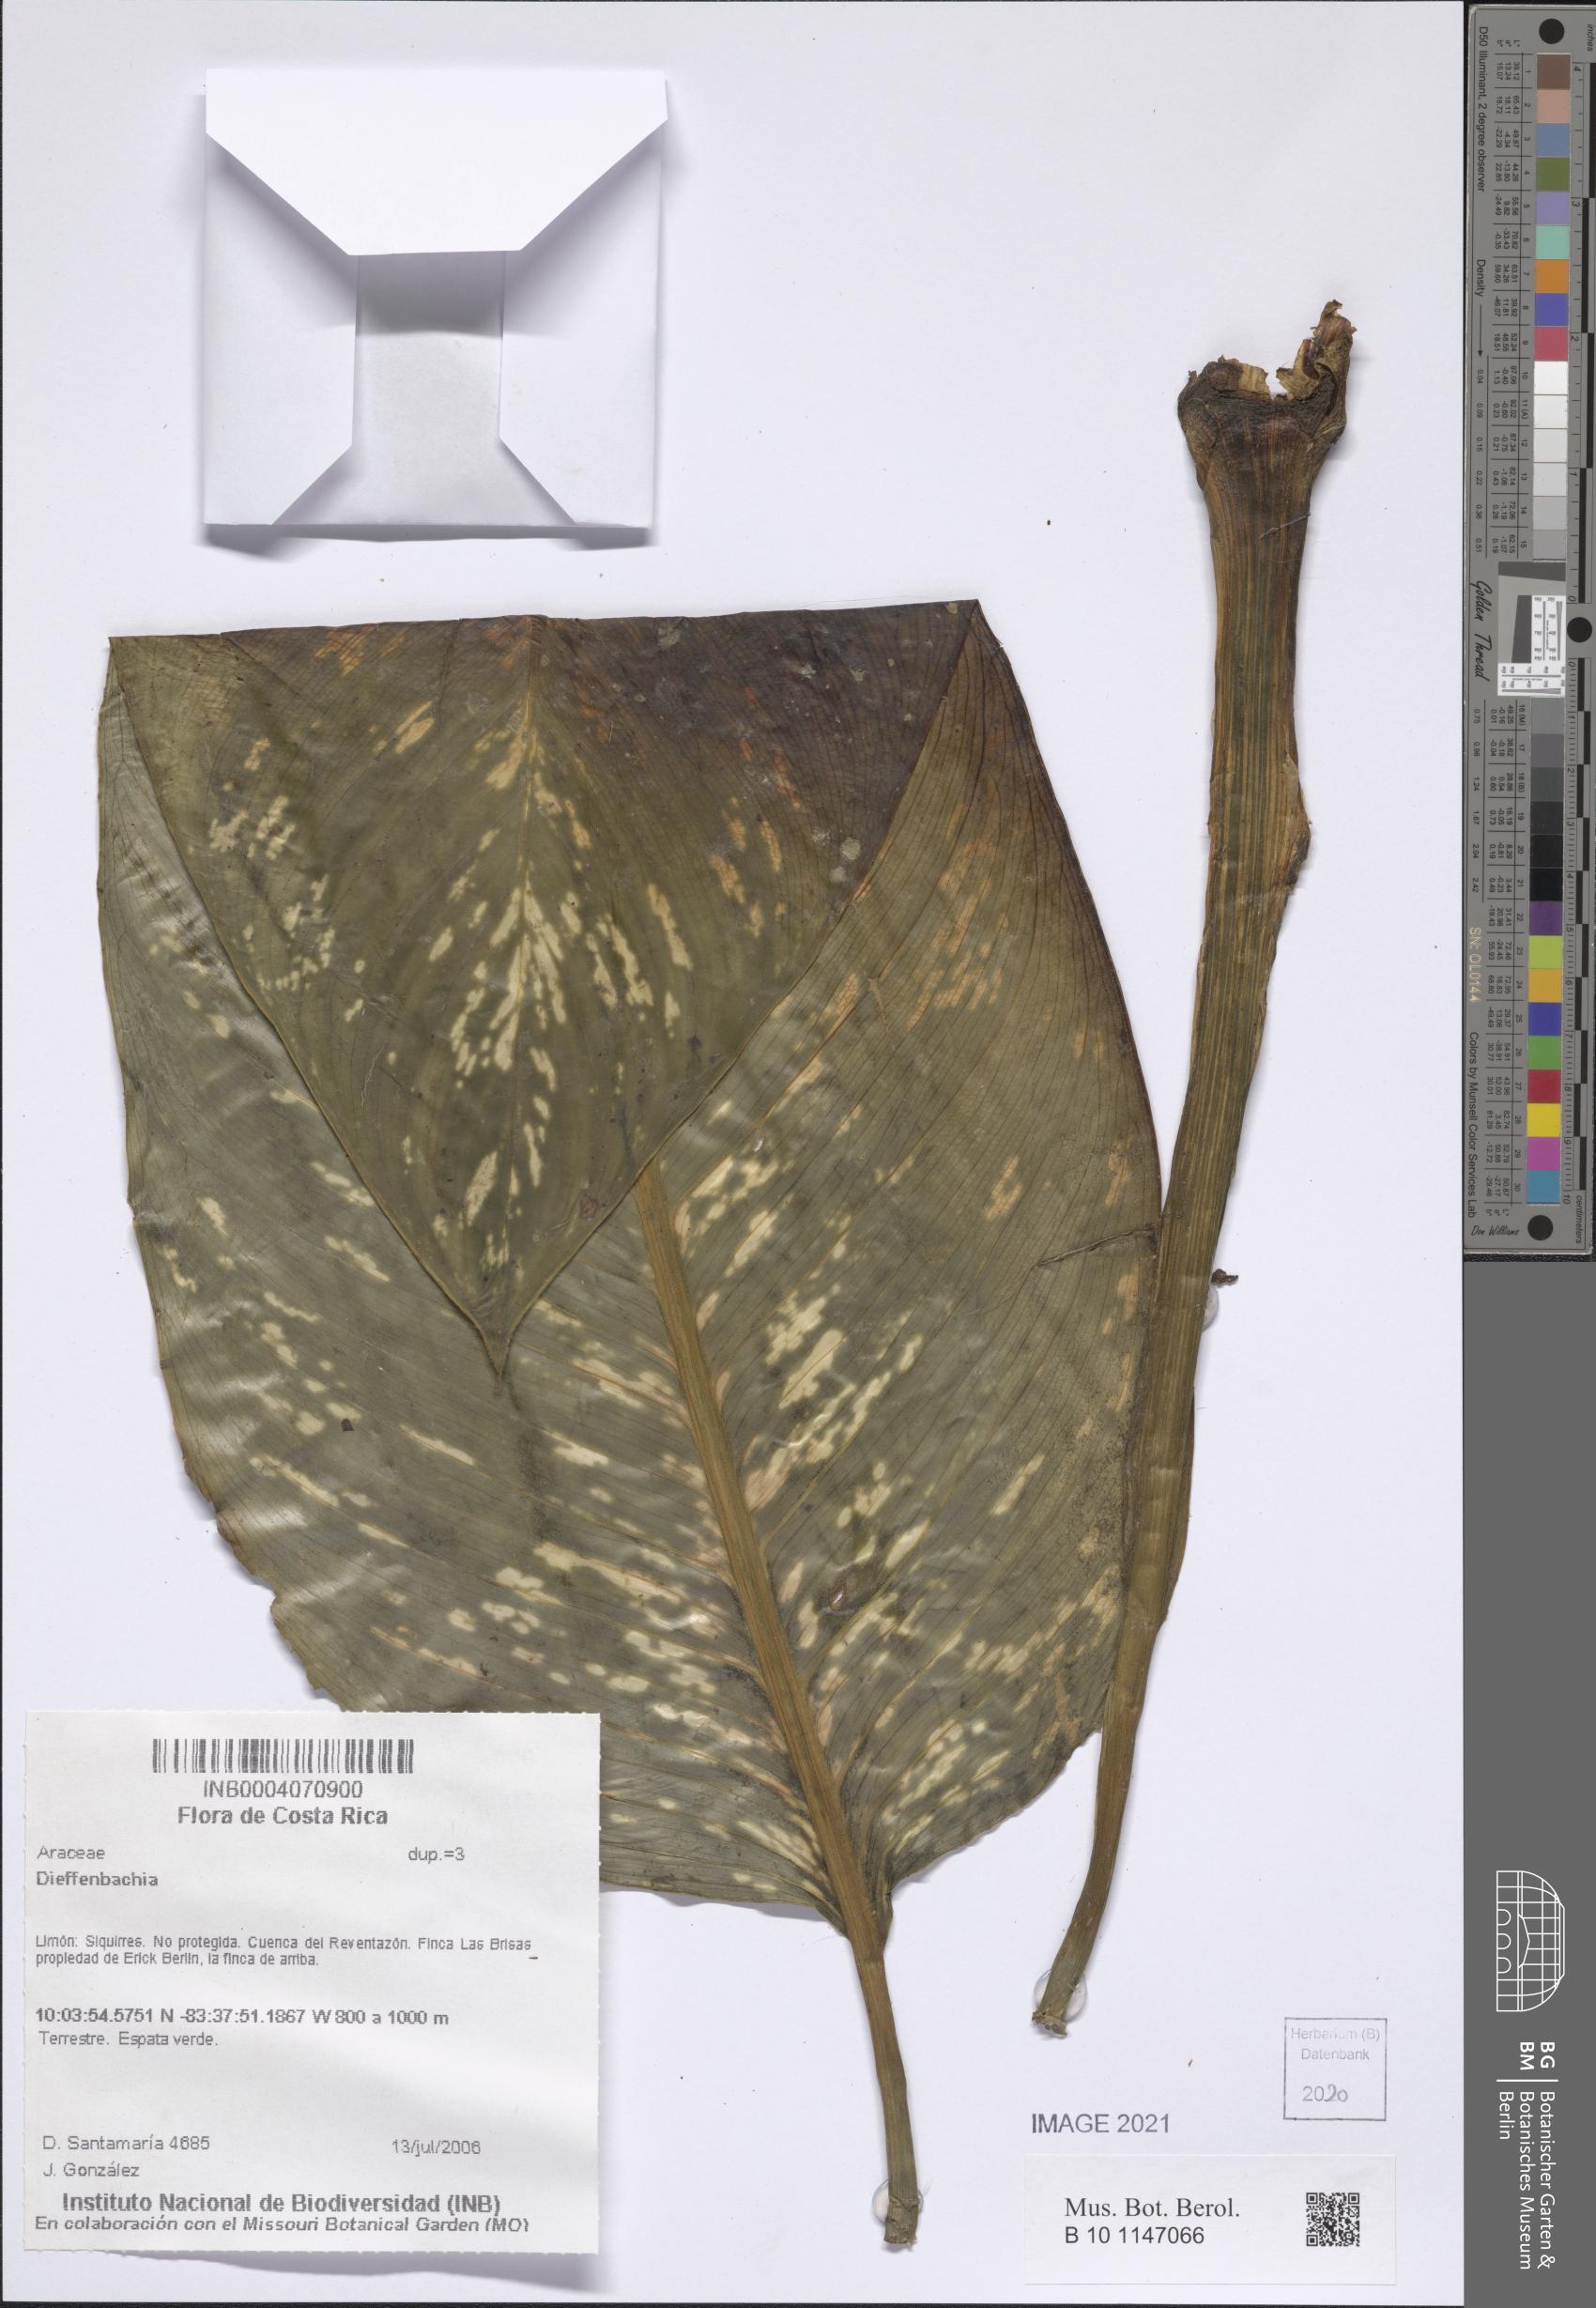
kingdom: Plantae
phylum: Tracheophyta
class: Liliopsida
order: Alismatales
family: Araceae
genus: Dieffenbachia
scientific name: Dieffenbachia
